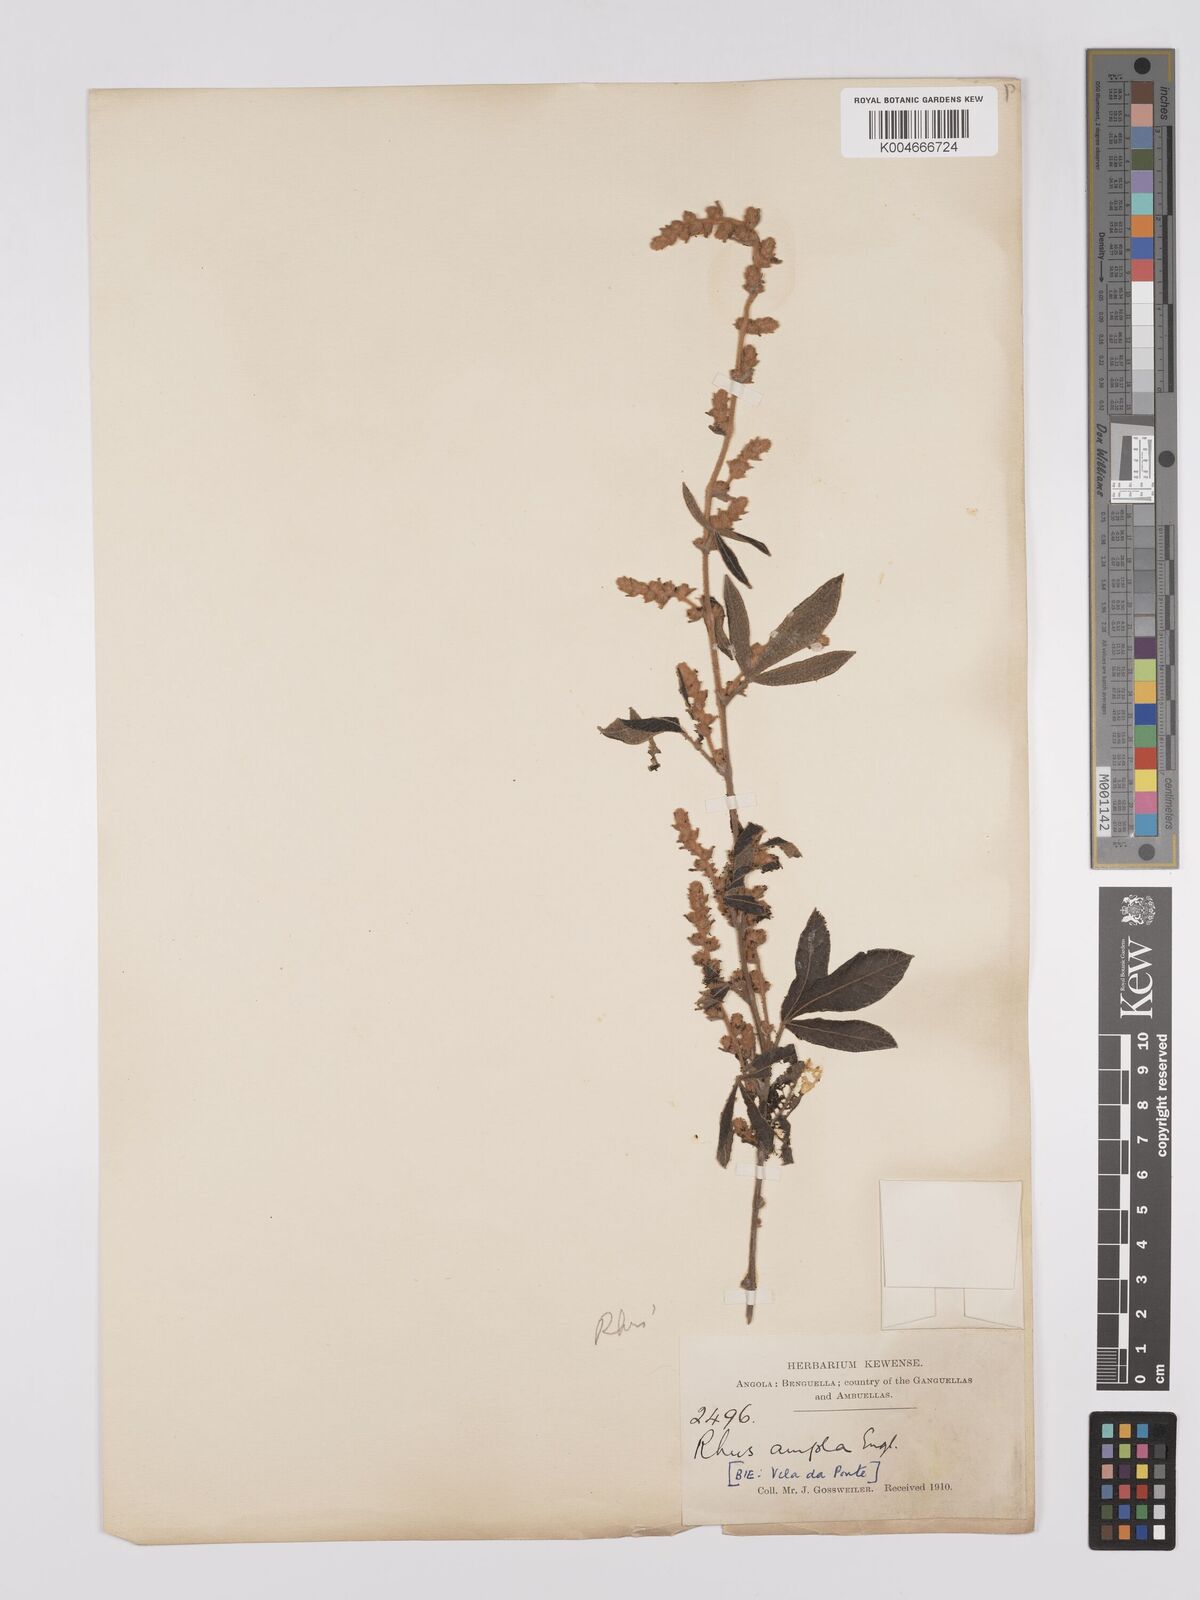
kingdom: Plantae
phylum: Tracheophyta
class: Magnoliopsida
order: Sapindales
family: Anacardiaceae
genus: Searsia
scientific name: Searsia kirkii
